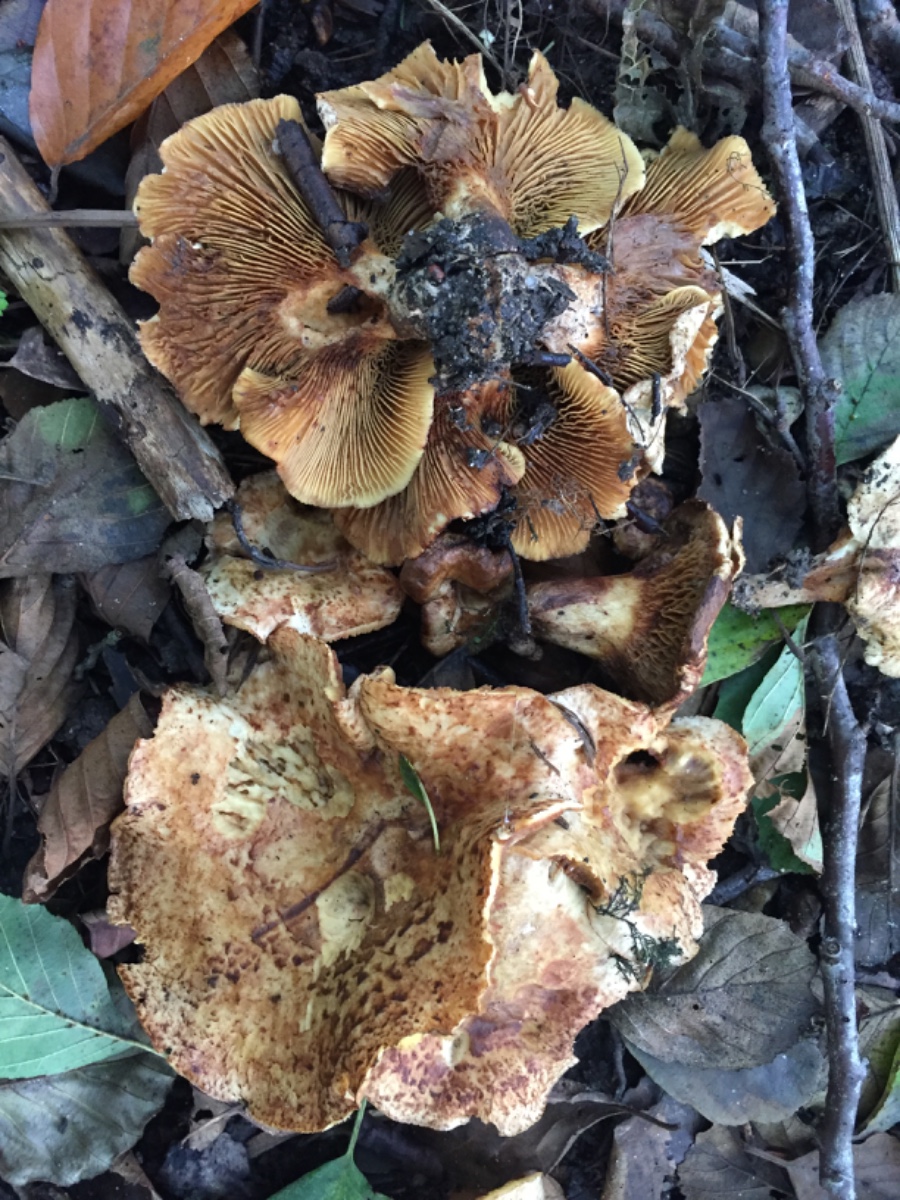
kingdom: Fungi
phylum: Basidiomycota
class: Agaricomycetes
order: Boletales
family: Paxillaceae
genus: Paxillus
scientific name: Paxillus rubicundulus
